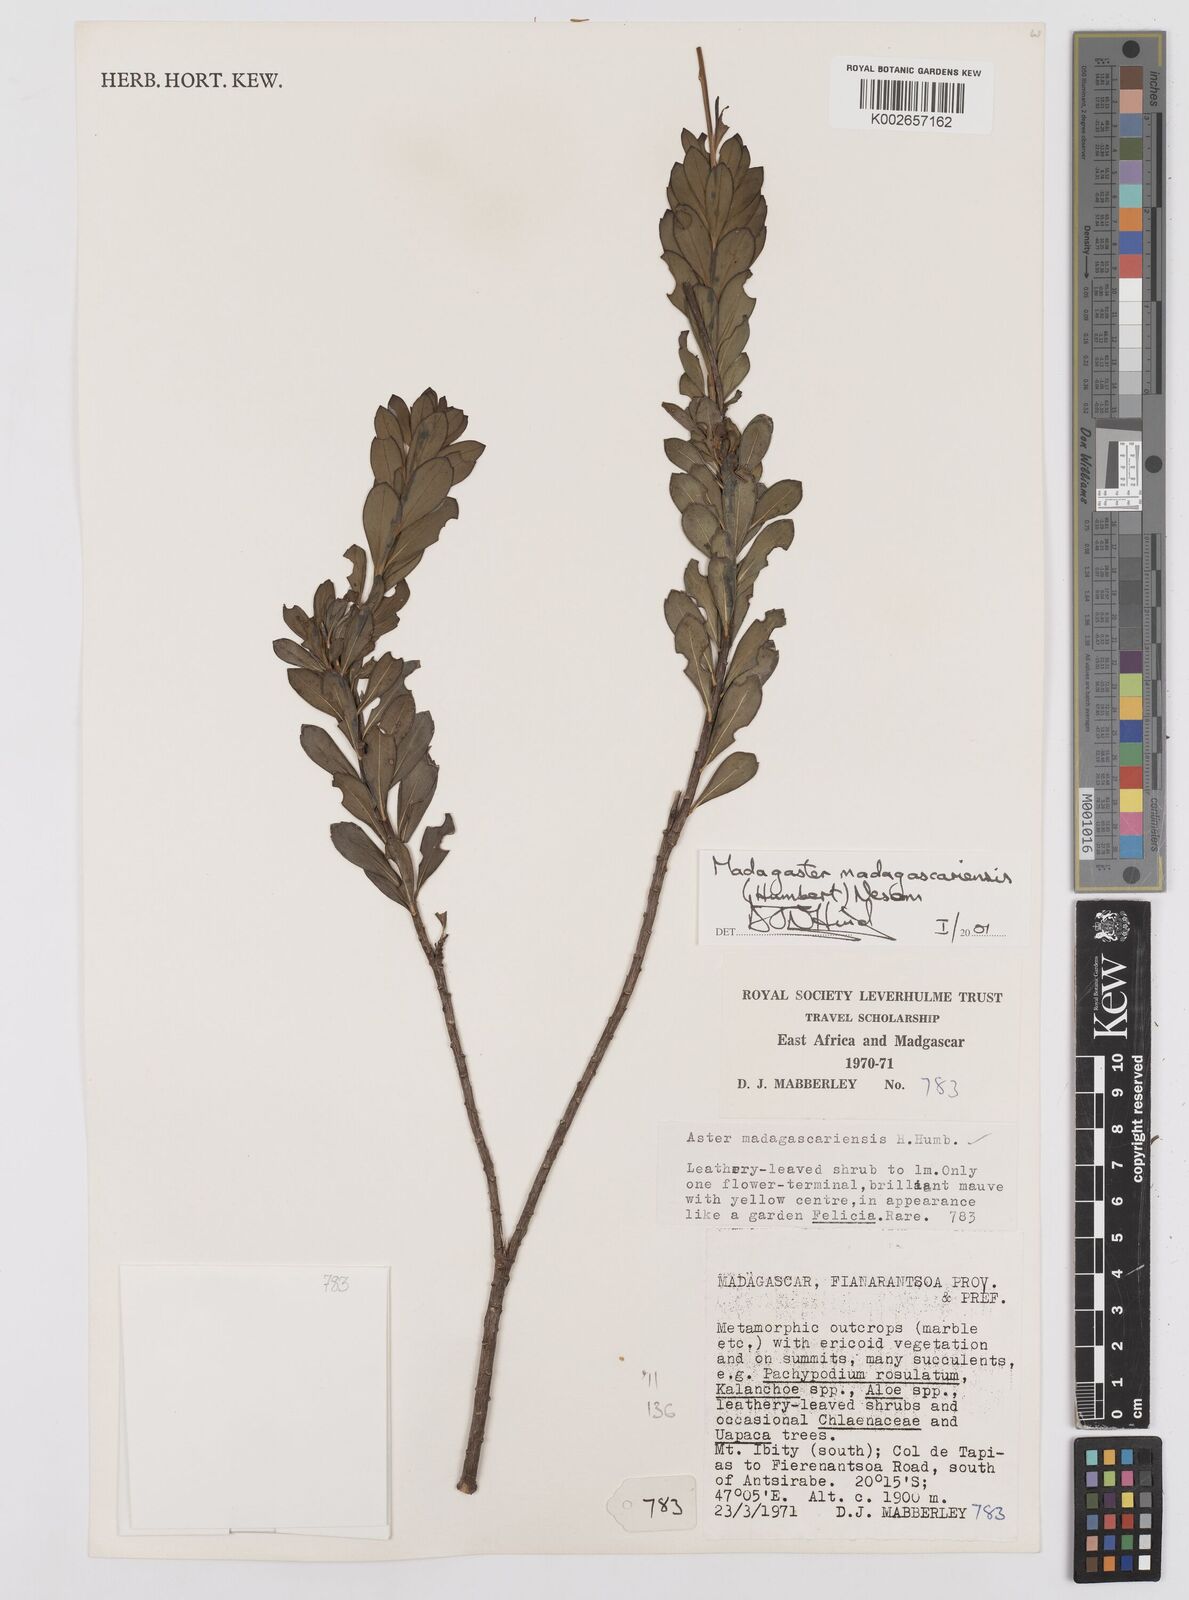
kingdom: Plantae
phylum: Tracheophyta
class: Magnoliopsida
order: Asterales
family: Asteraceae
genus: Madagaster
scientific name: Madagaster madagascariensis
